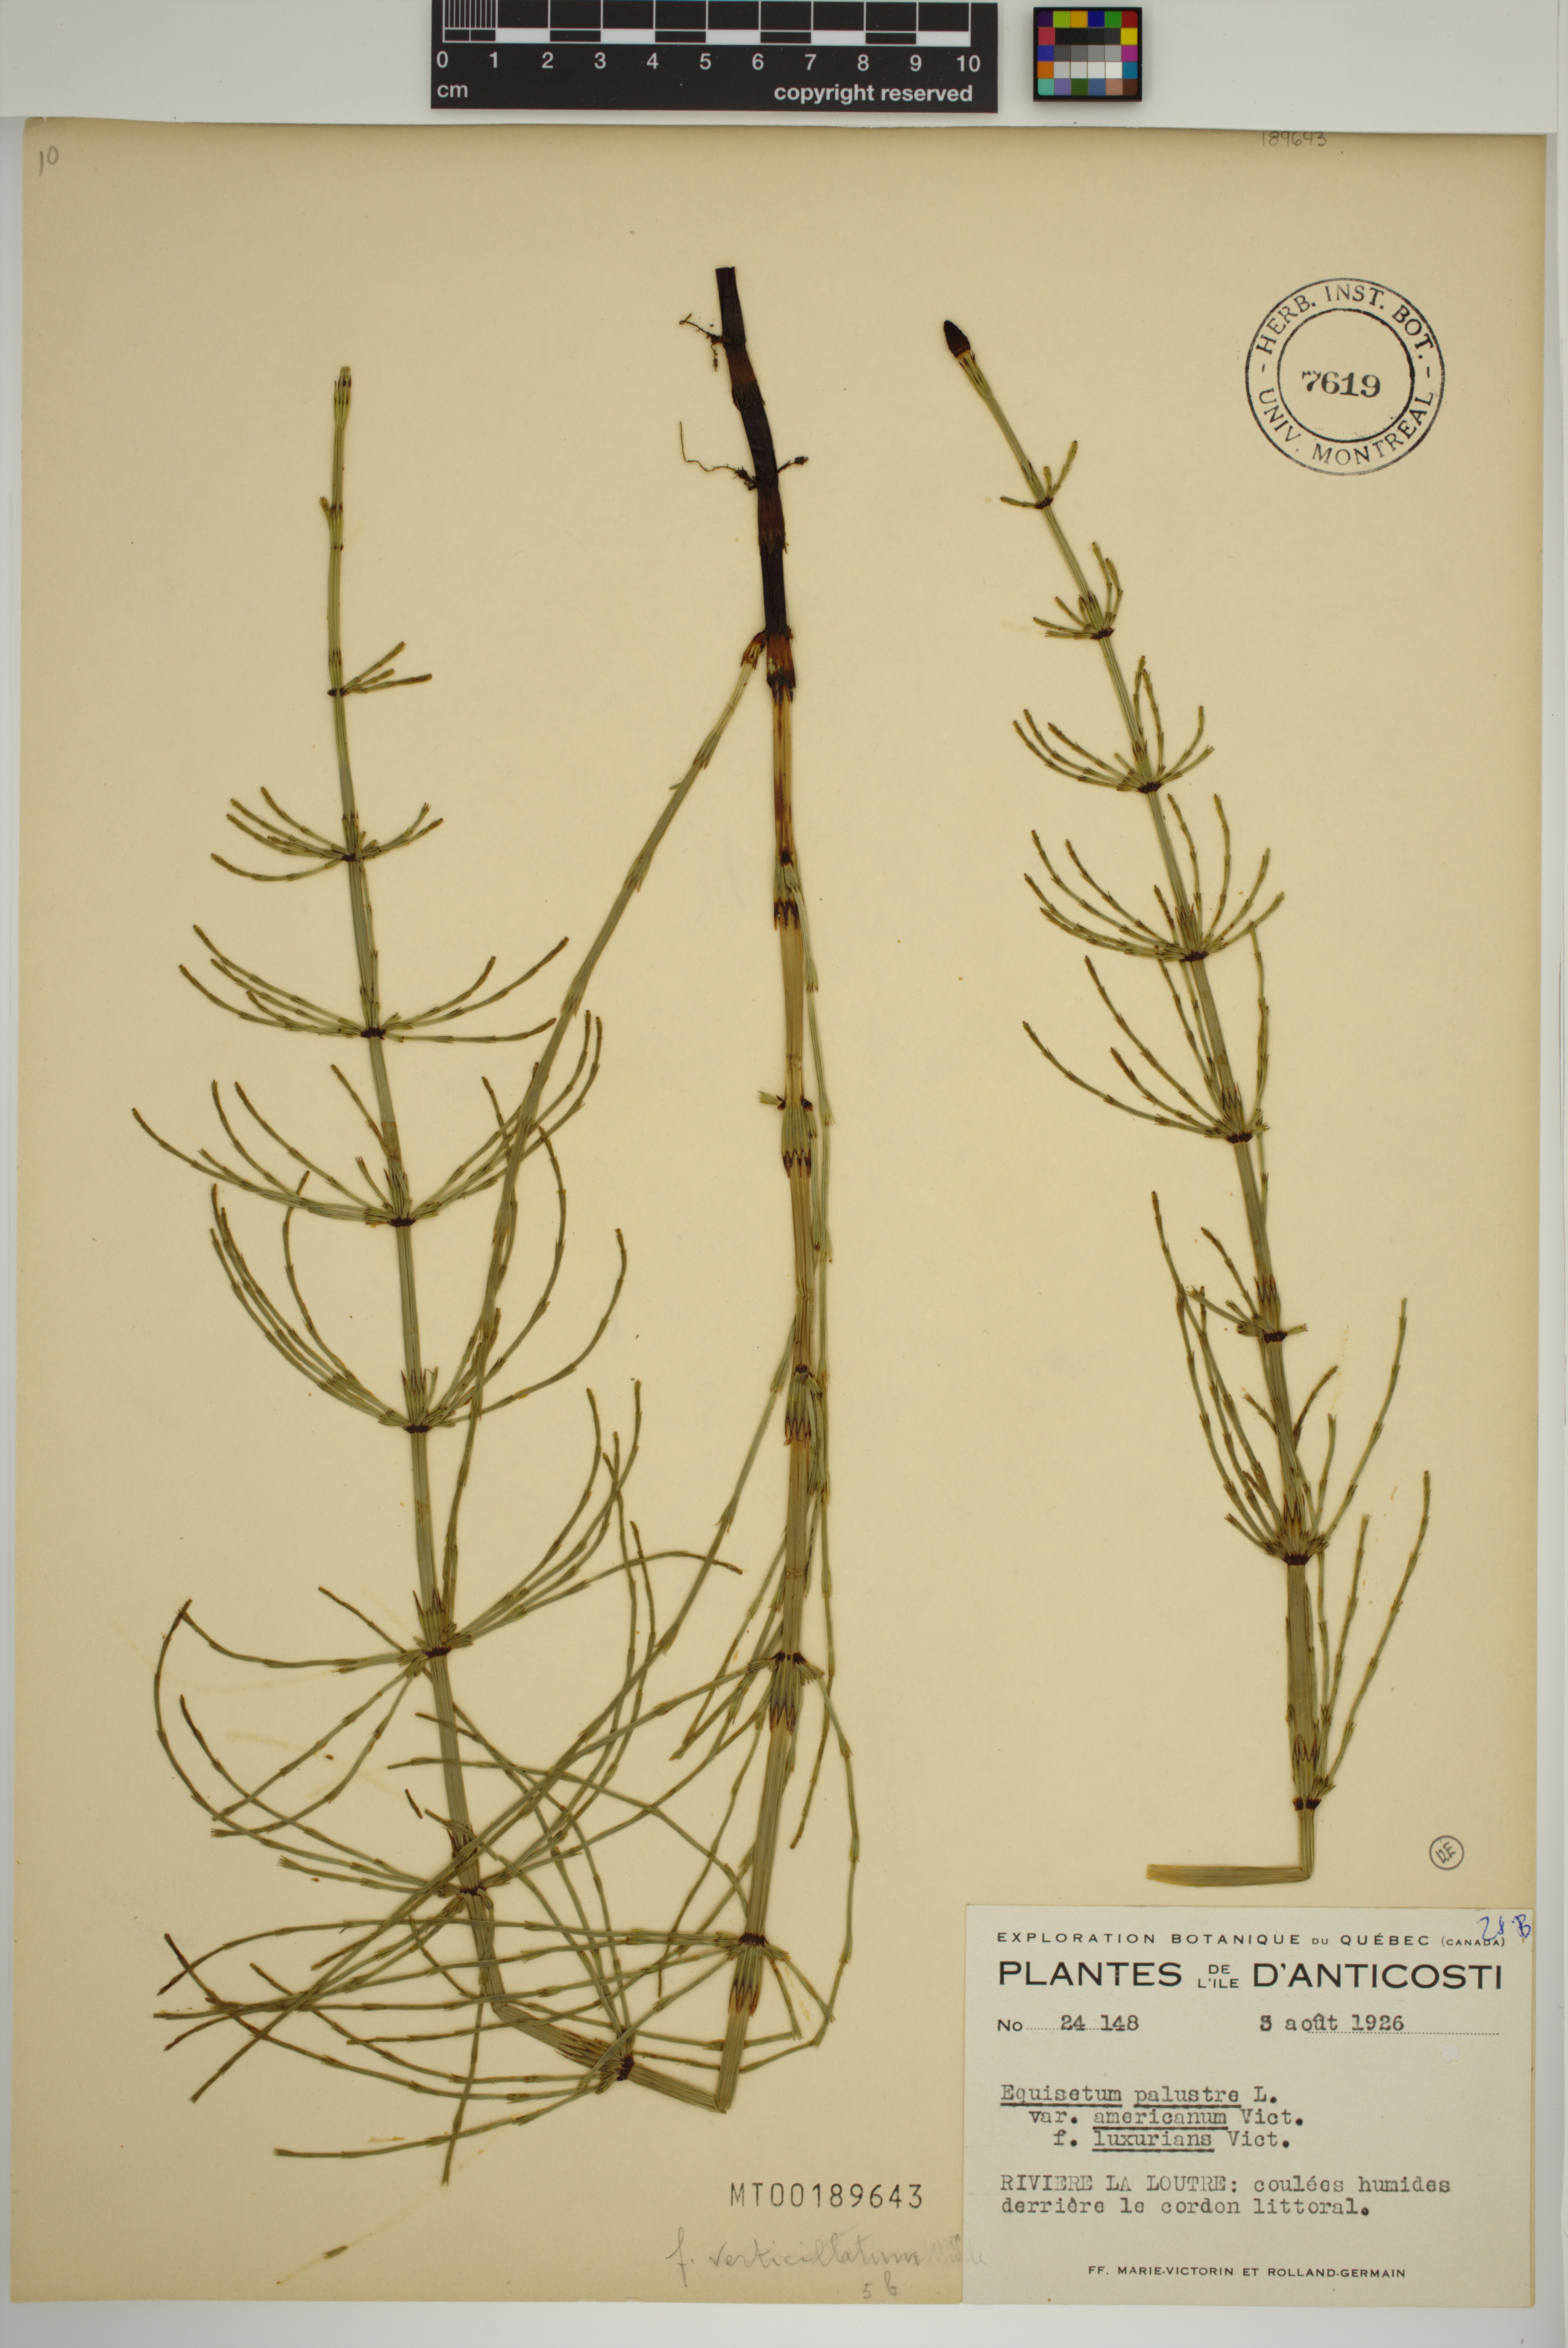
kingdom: Plantae
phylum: Tracheophyta
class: Polypodiopsida
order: Equisetales
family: Equisetaceae
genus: Equisetum
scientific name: Equisetum palustre
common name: Marsh horsetail
